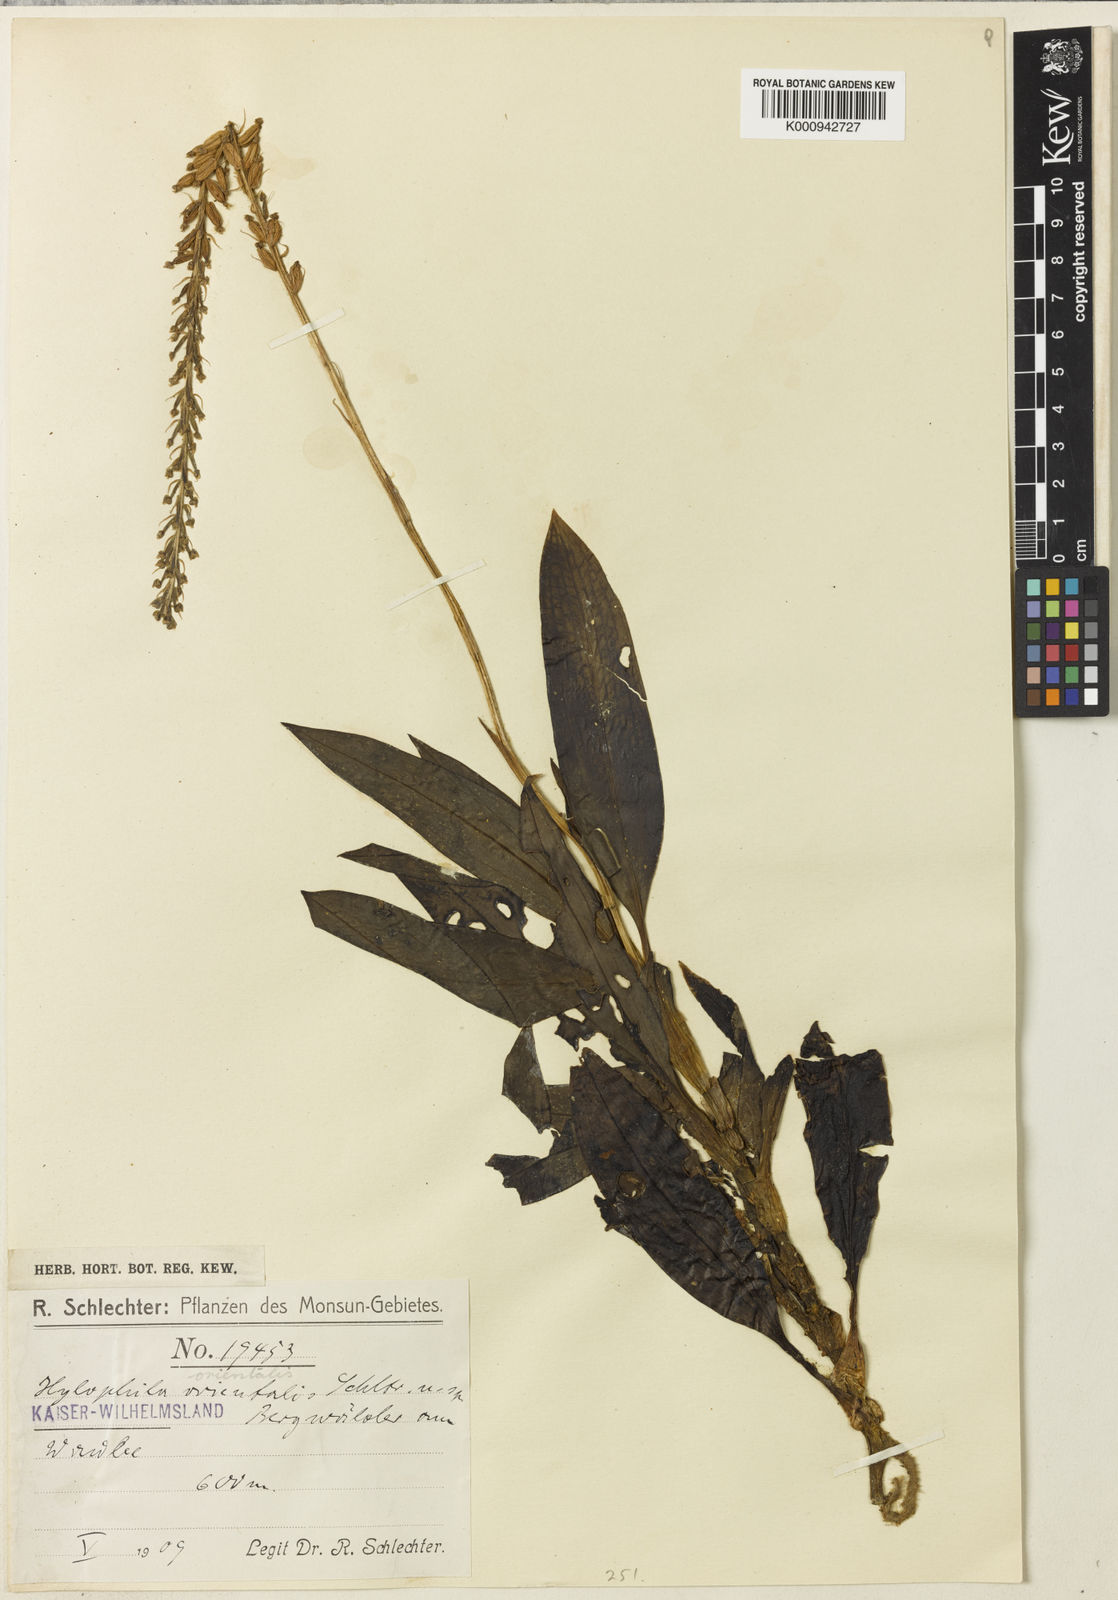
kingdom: Plantae
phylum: Tracheophyta
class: Liliopsida
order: Asparagales
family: Orchidaceae
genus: Hylophila
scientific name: Hylophila mollis
